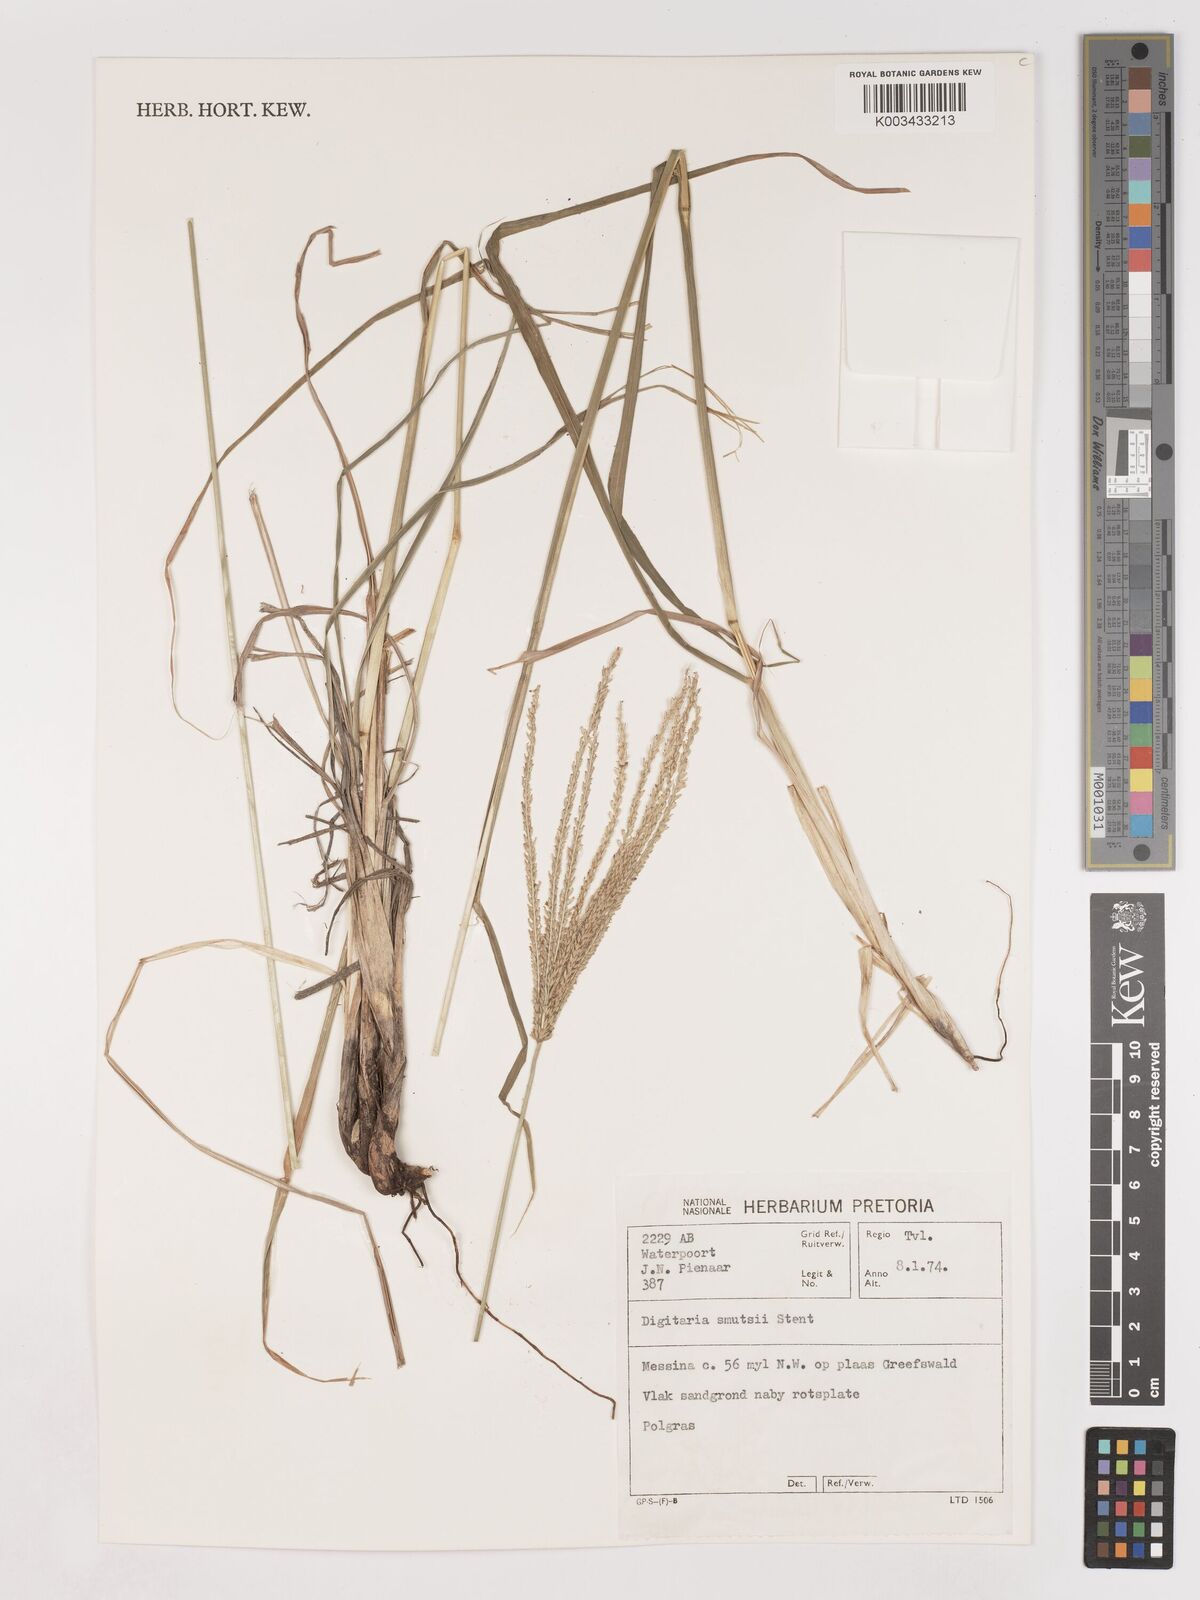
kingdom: Plantae
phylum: Tracheophyta
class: Liliopsida
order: Poales
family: Poaceae
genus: Digitaria
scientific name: Digitaria eriantha
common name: Digitgrass
